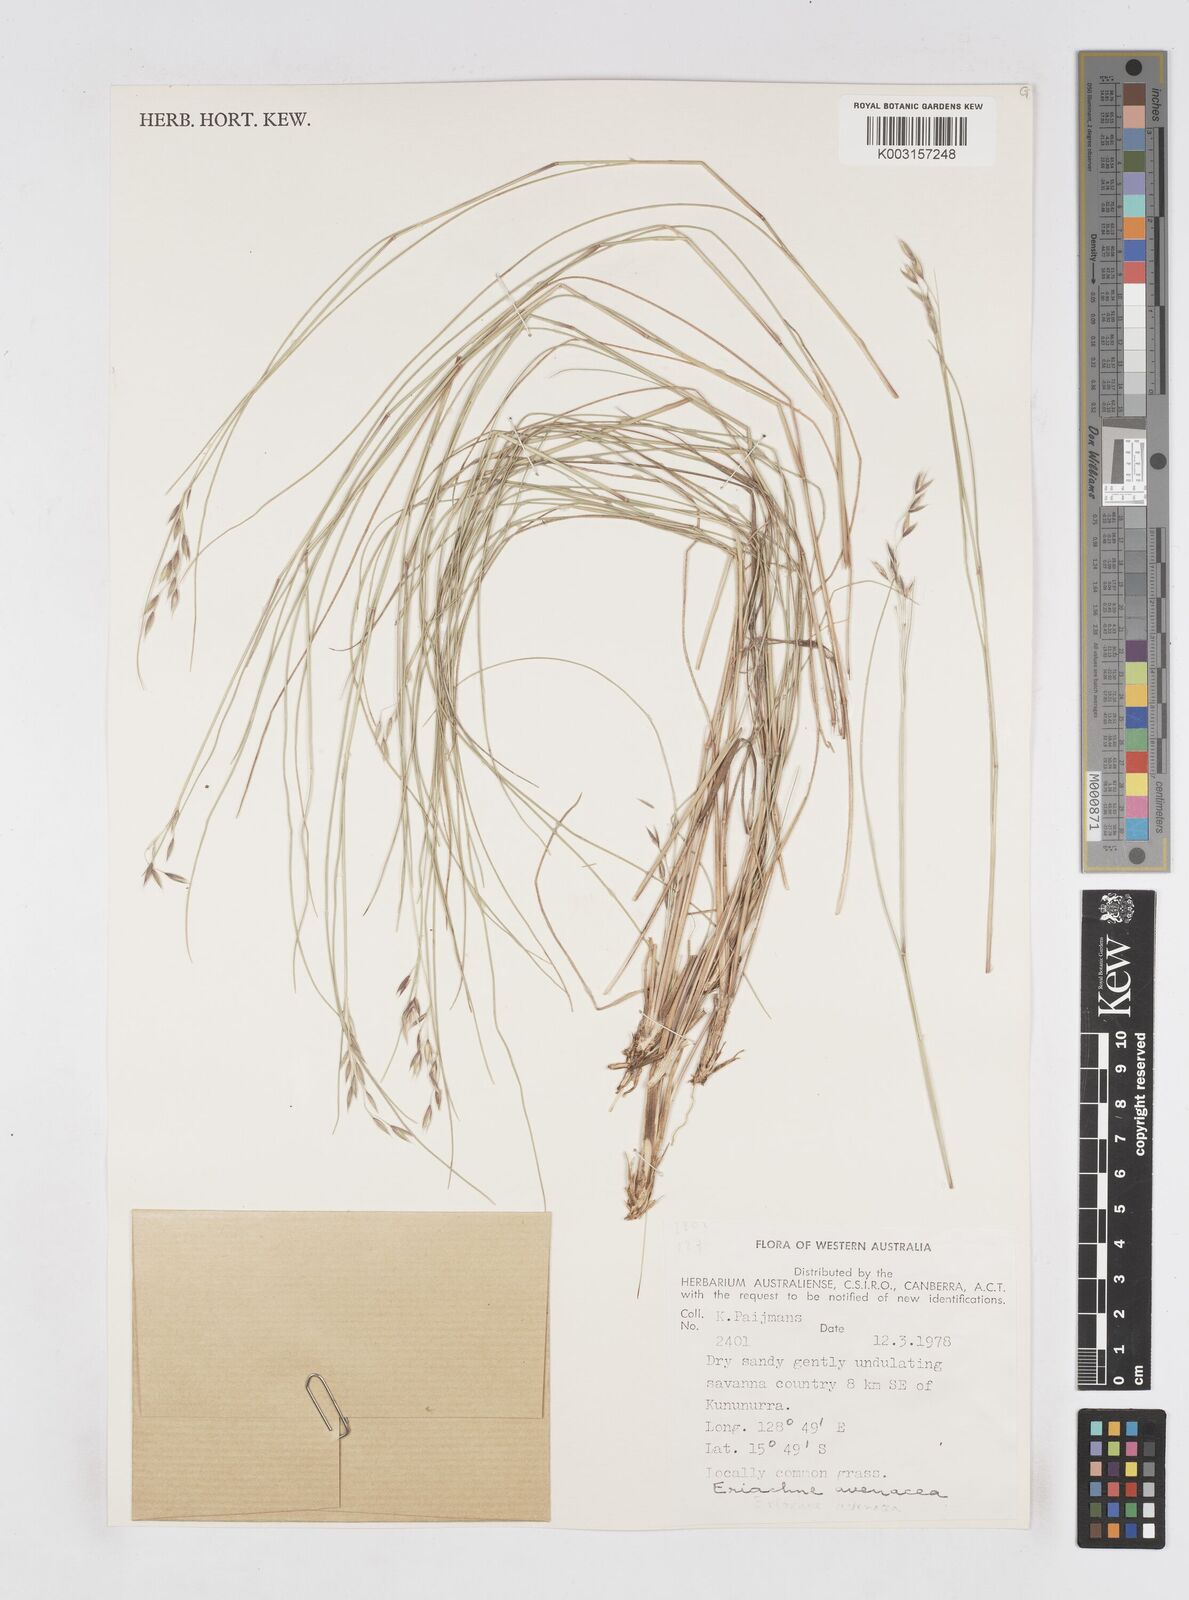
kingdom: Plantae
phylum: Tracheophyta
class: Liliopsida
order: Poales
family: Poaceae
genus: Eriachne
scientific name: Eriachne avenacea
